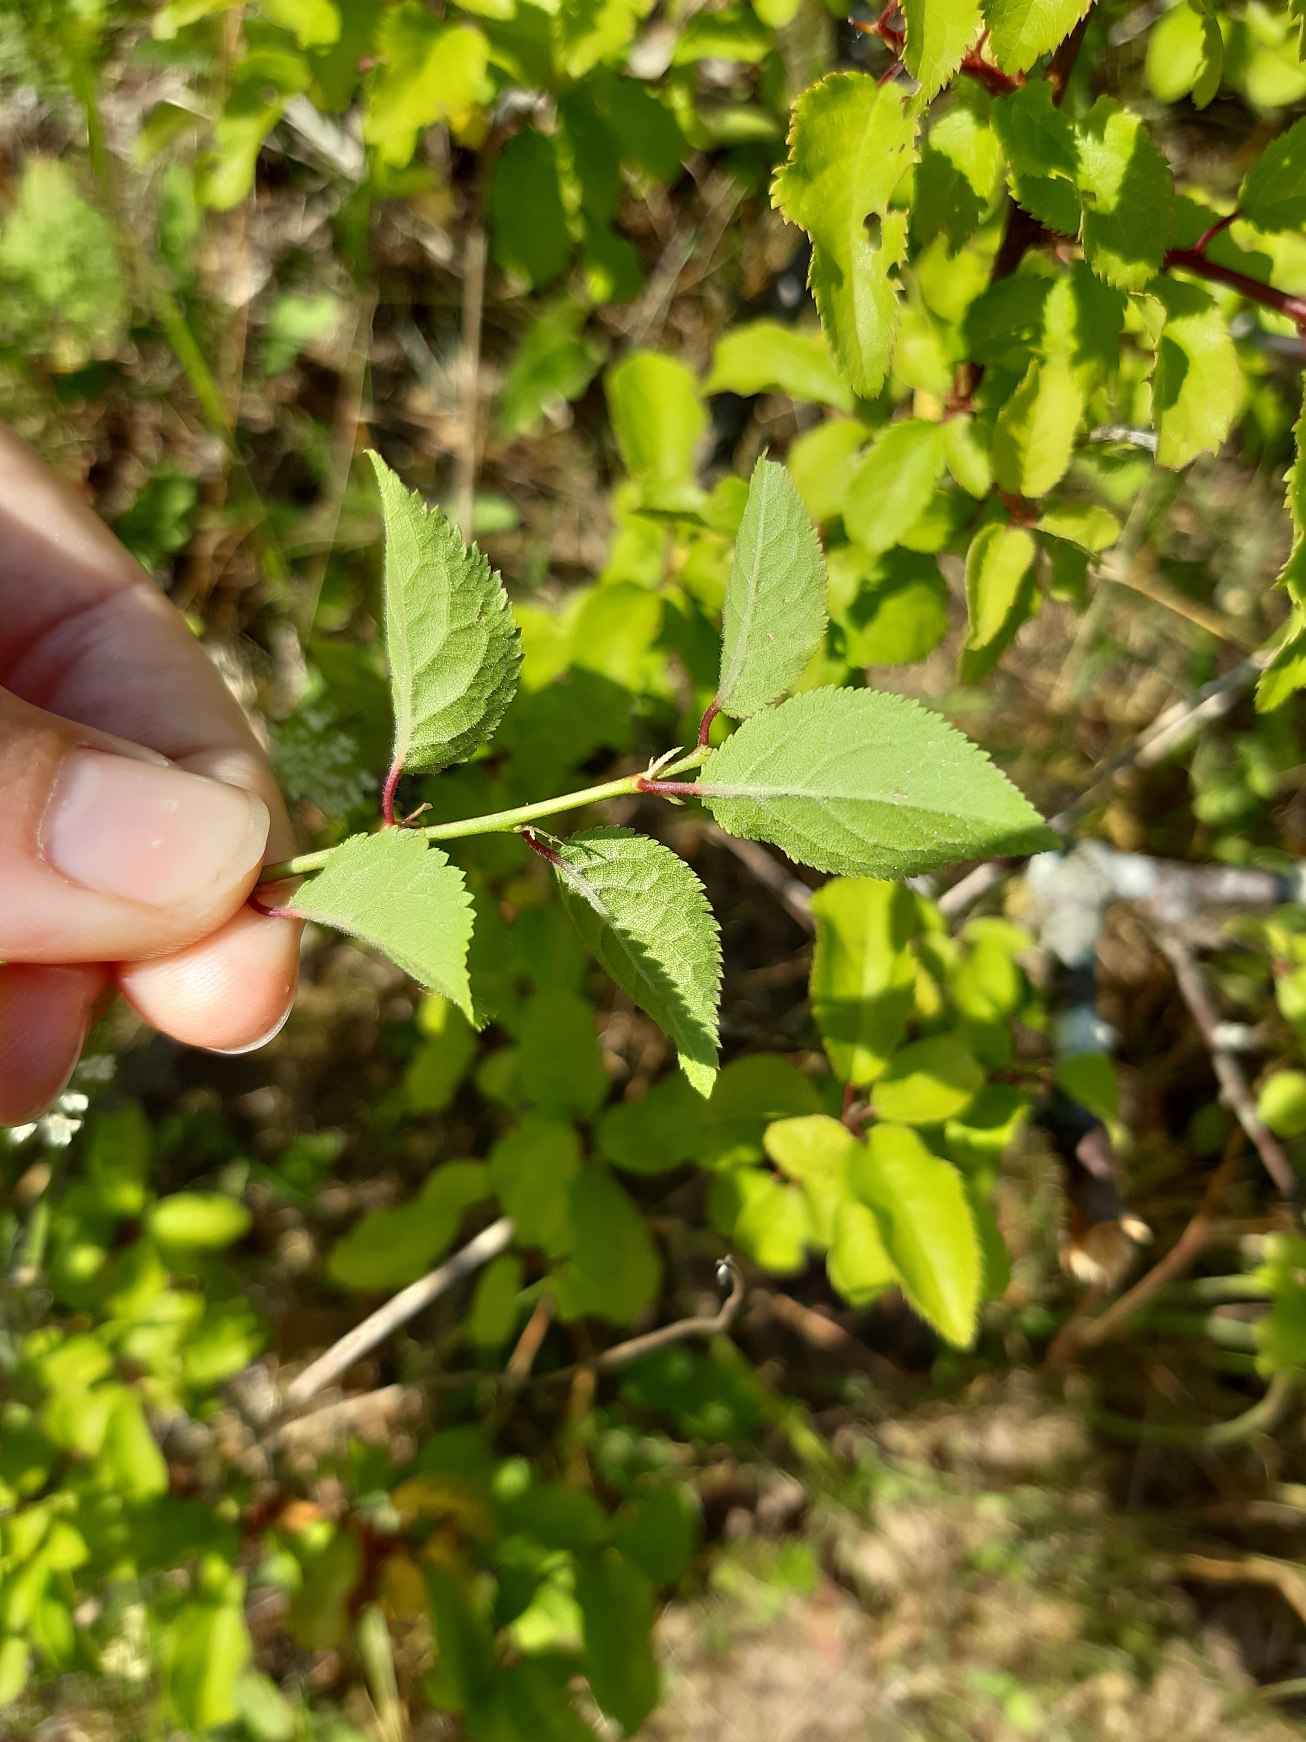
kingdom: Plantae
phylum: Tracheophyta
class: Magnoliopsida
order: Rosales
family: Rosaceae
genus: Prunus
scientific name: Prunus cerasifera
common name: Mirabel
